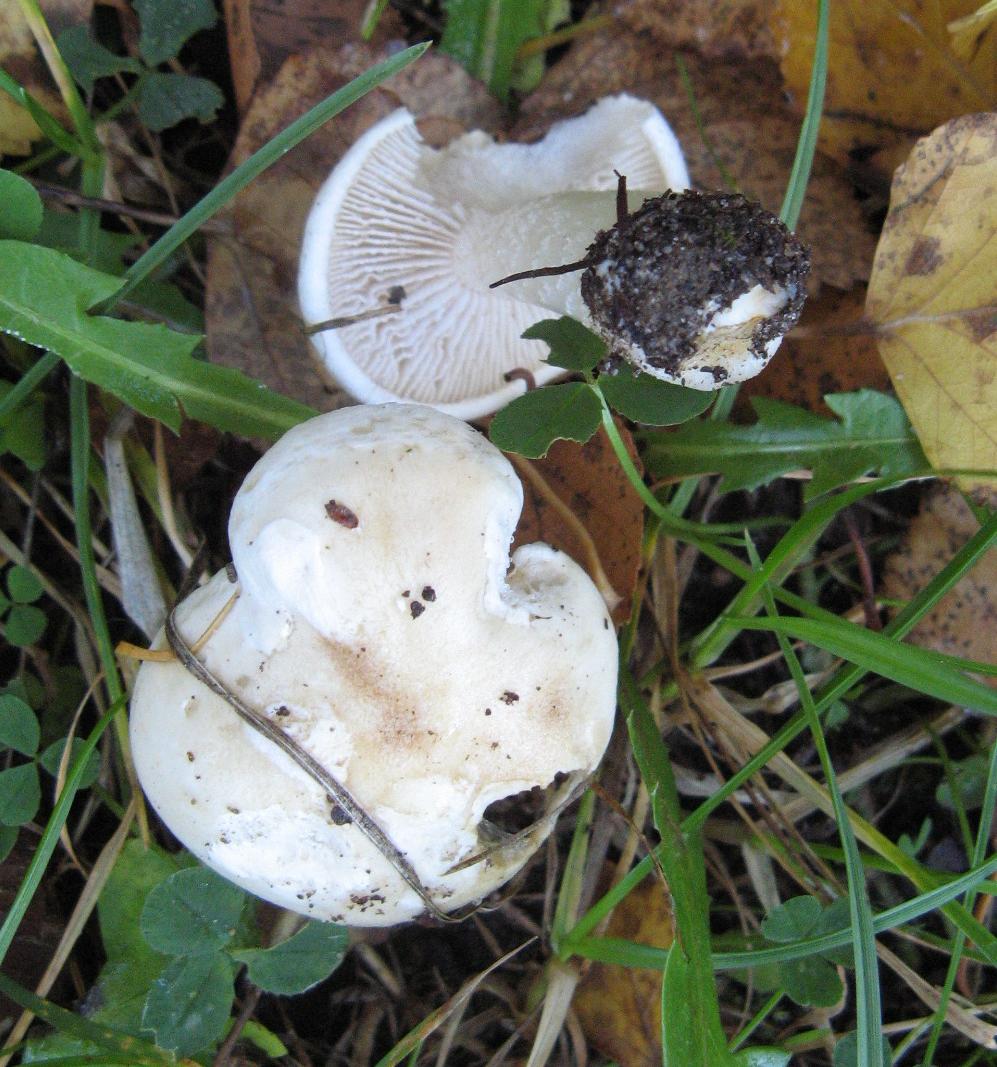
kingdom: Fungi
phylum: Basidiomycota
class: Agaricomycetes
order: Agaricales
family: Hymenogastraceae
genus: Hebeloma
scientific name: Hebeloma crustuliniforme
